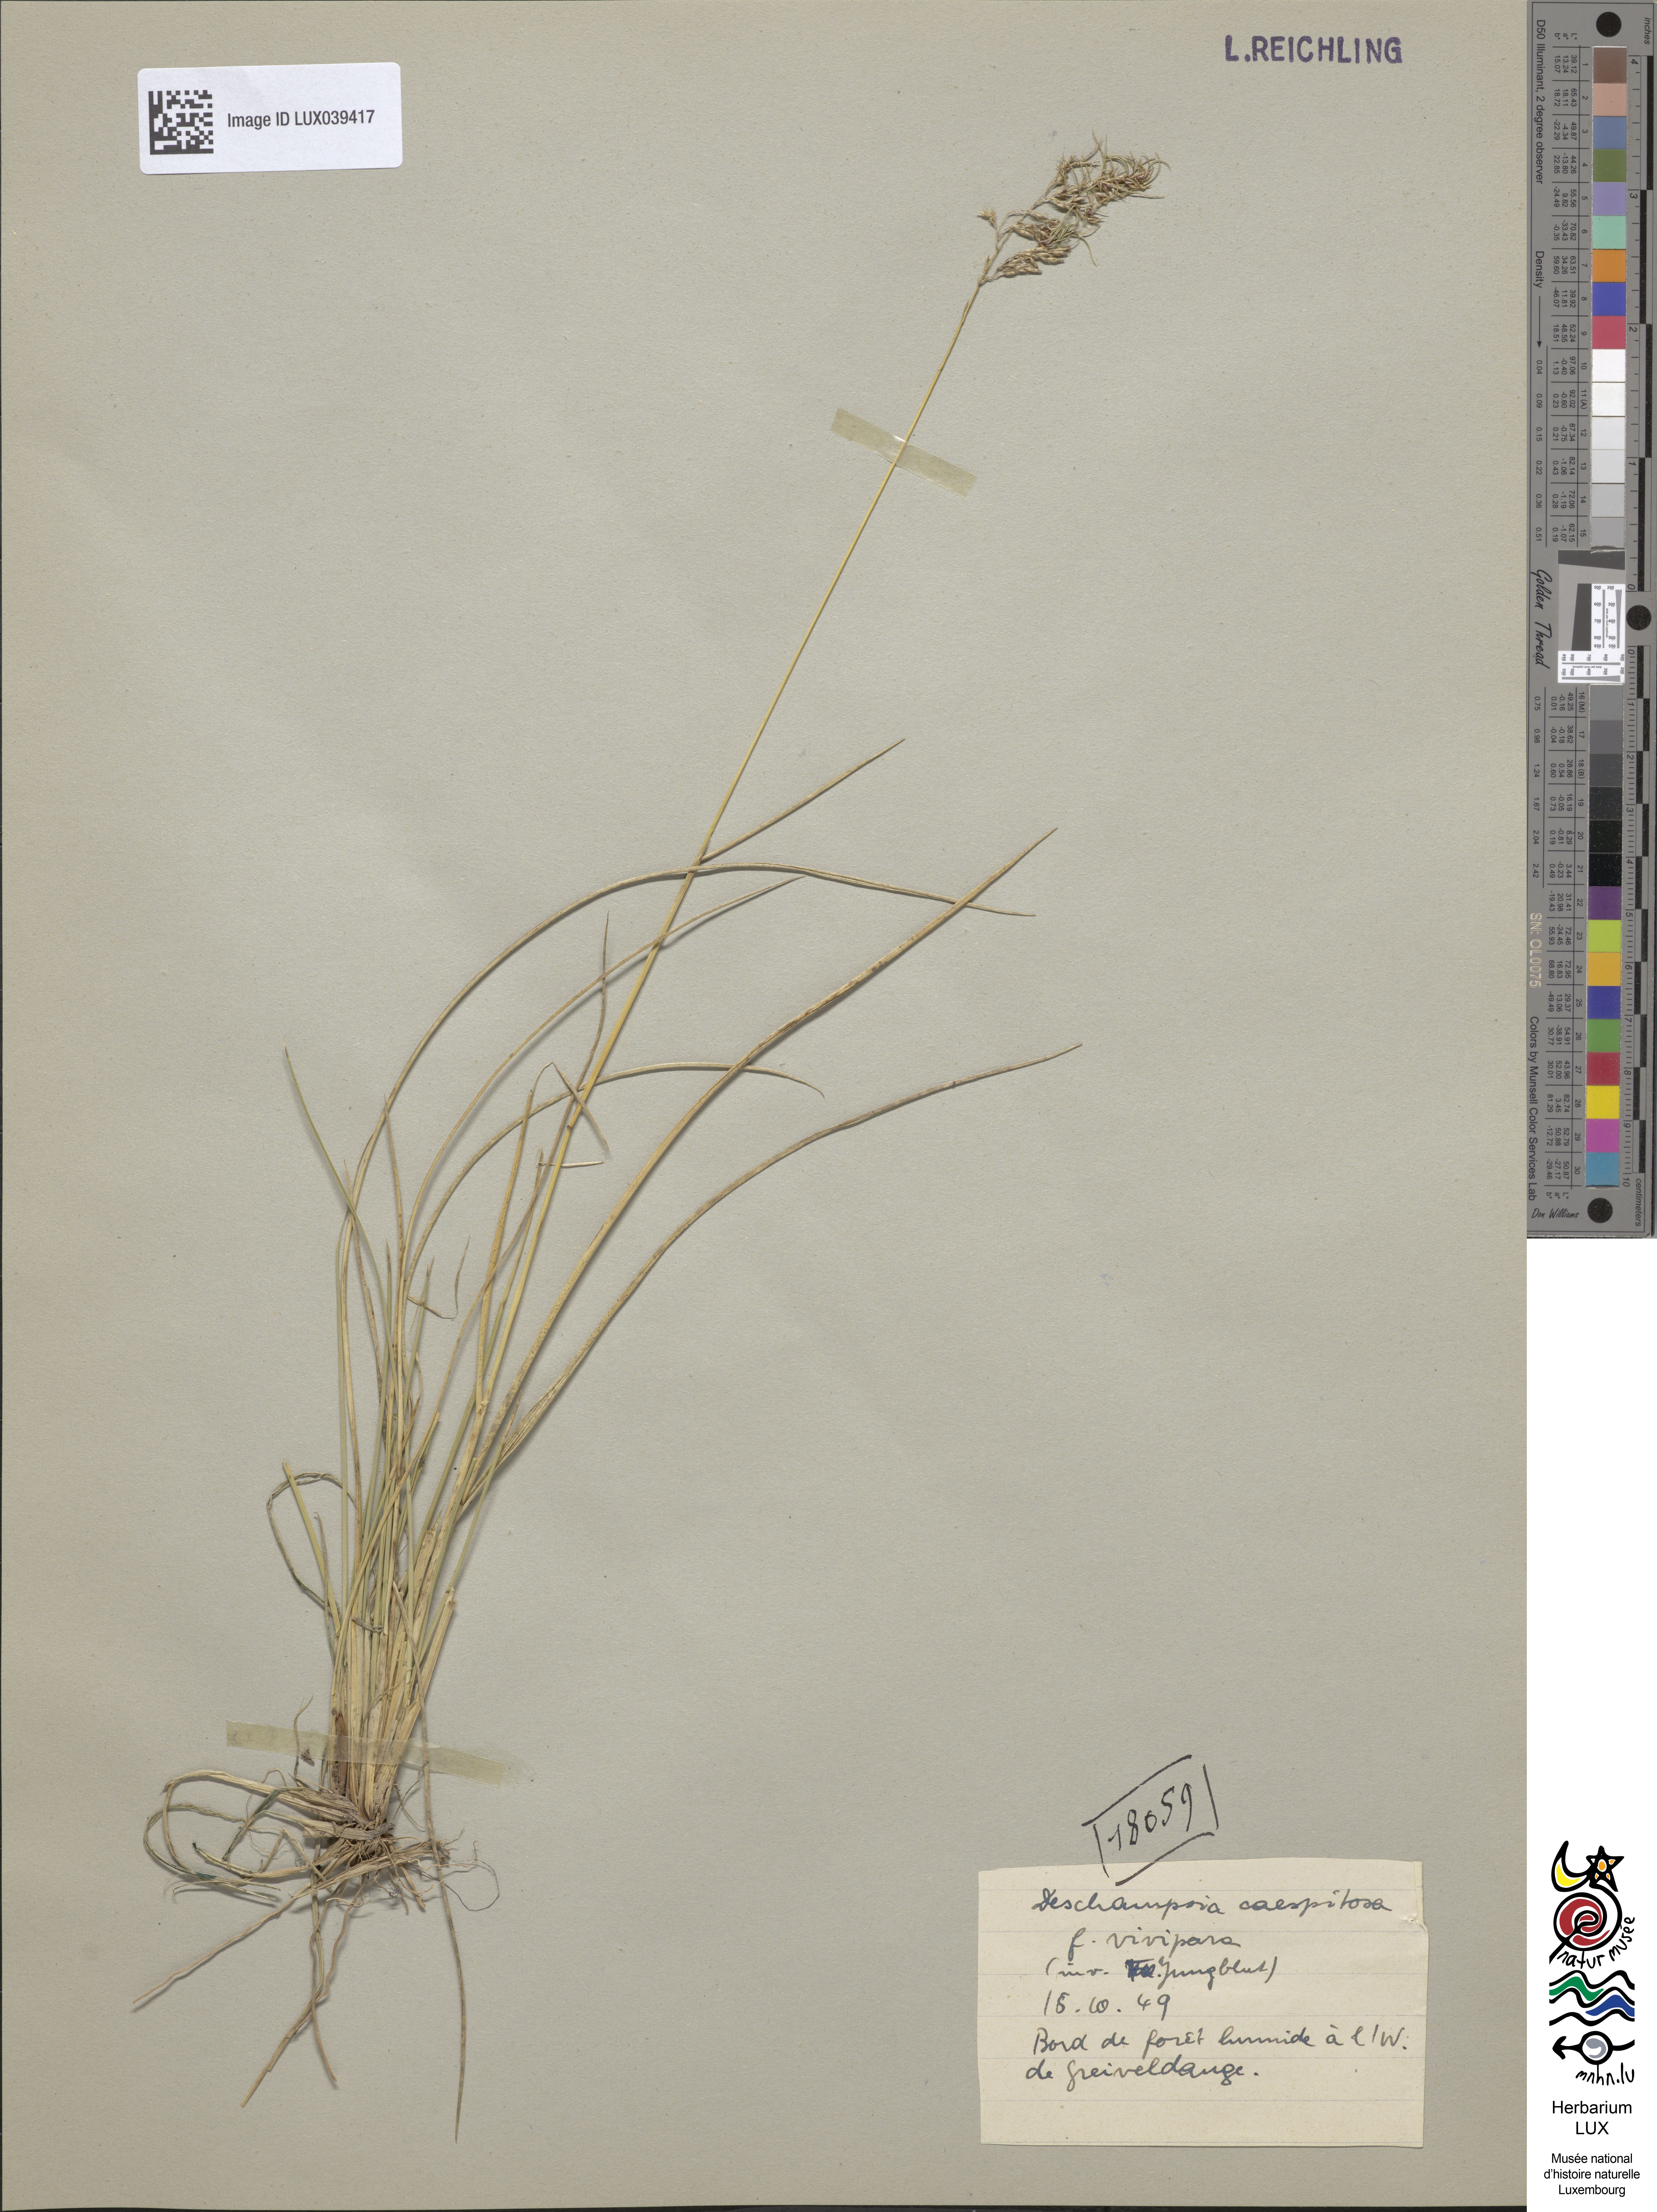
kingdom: Plantae
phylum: Tracheophyta
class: Liliopsida
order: Poales
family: Poaceae
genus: Deschampsia
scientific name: Deschampsia cespitosa
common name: Tufted hair-grass
